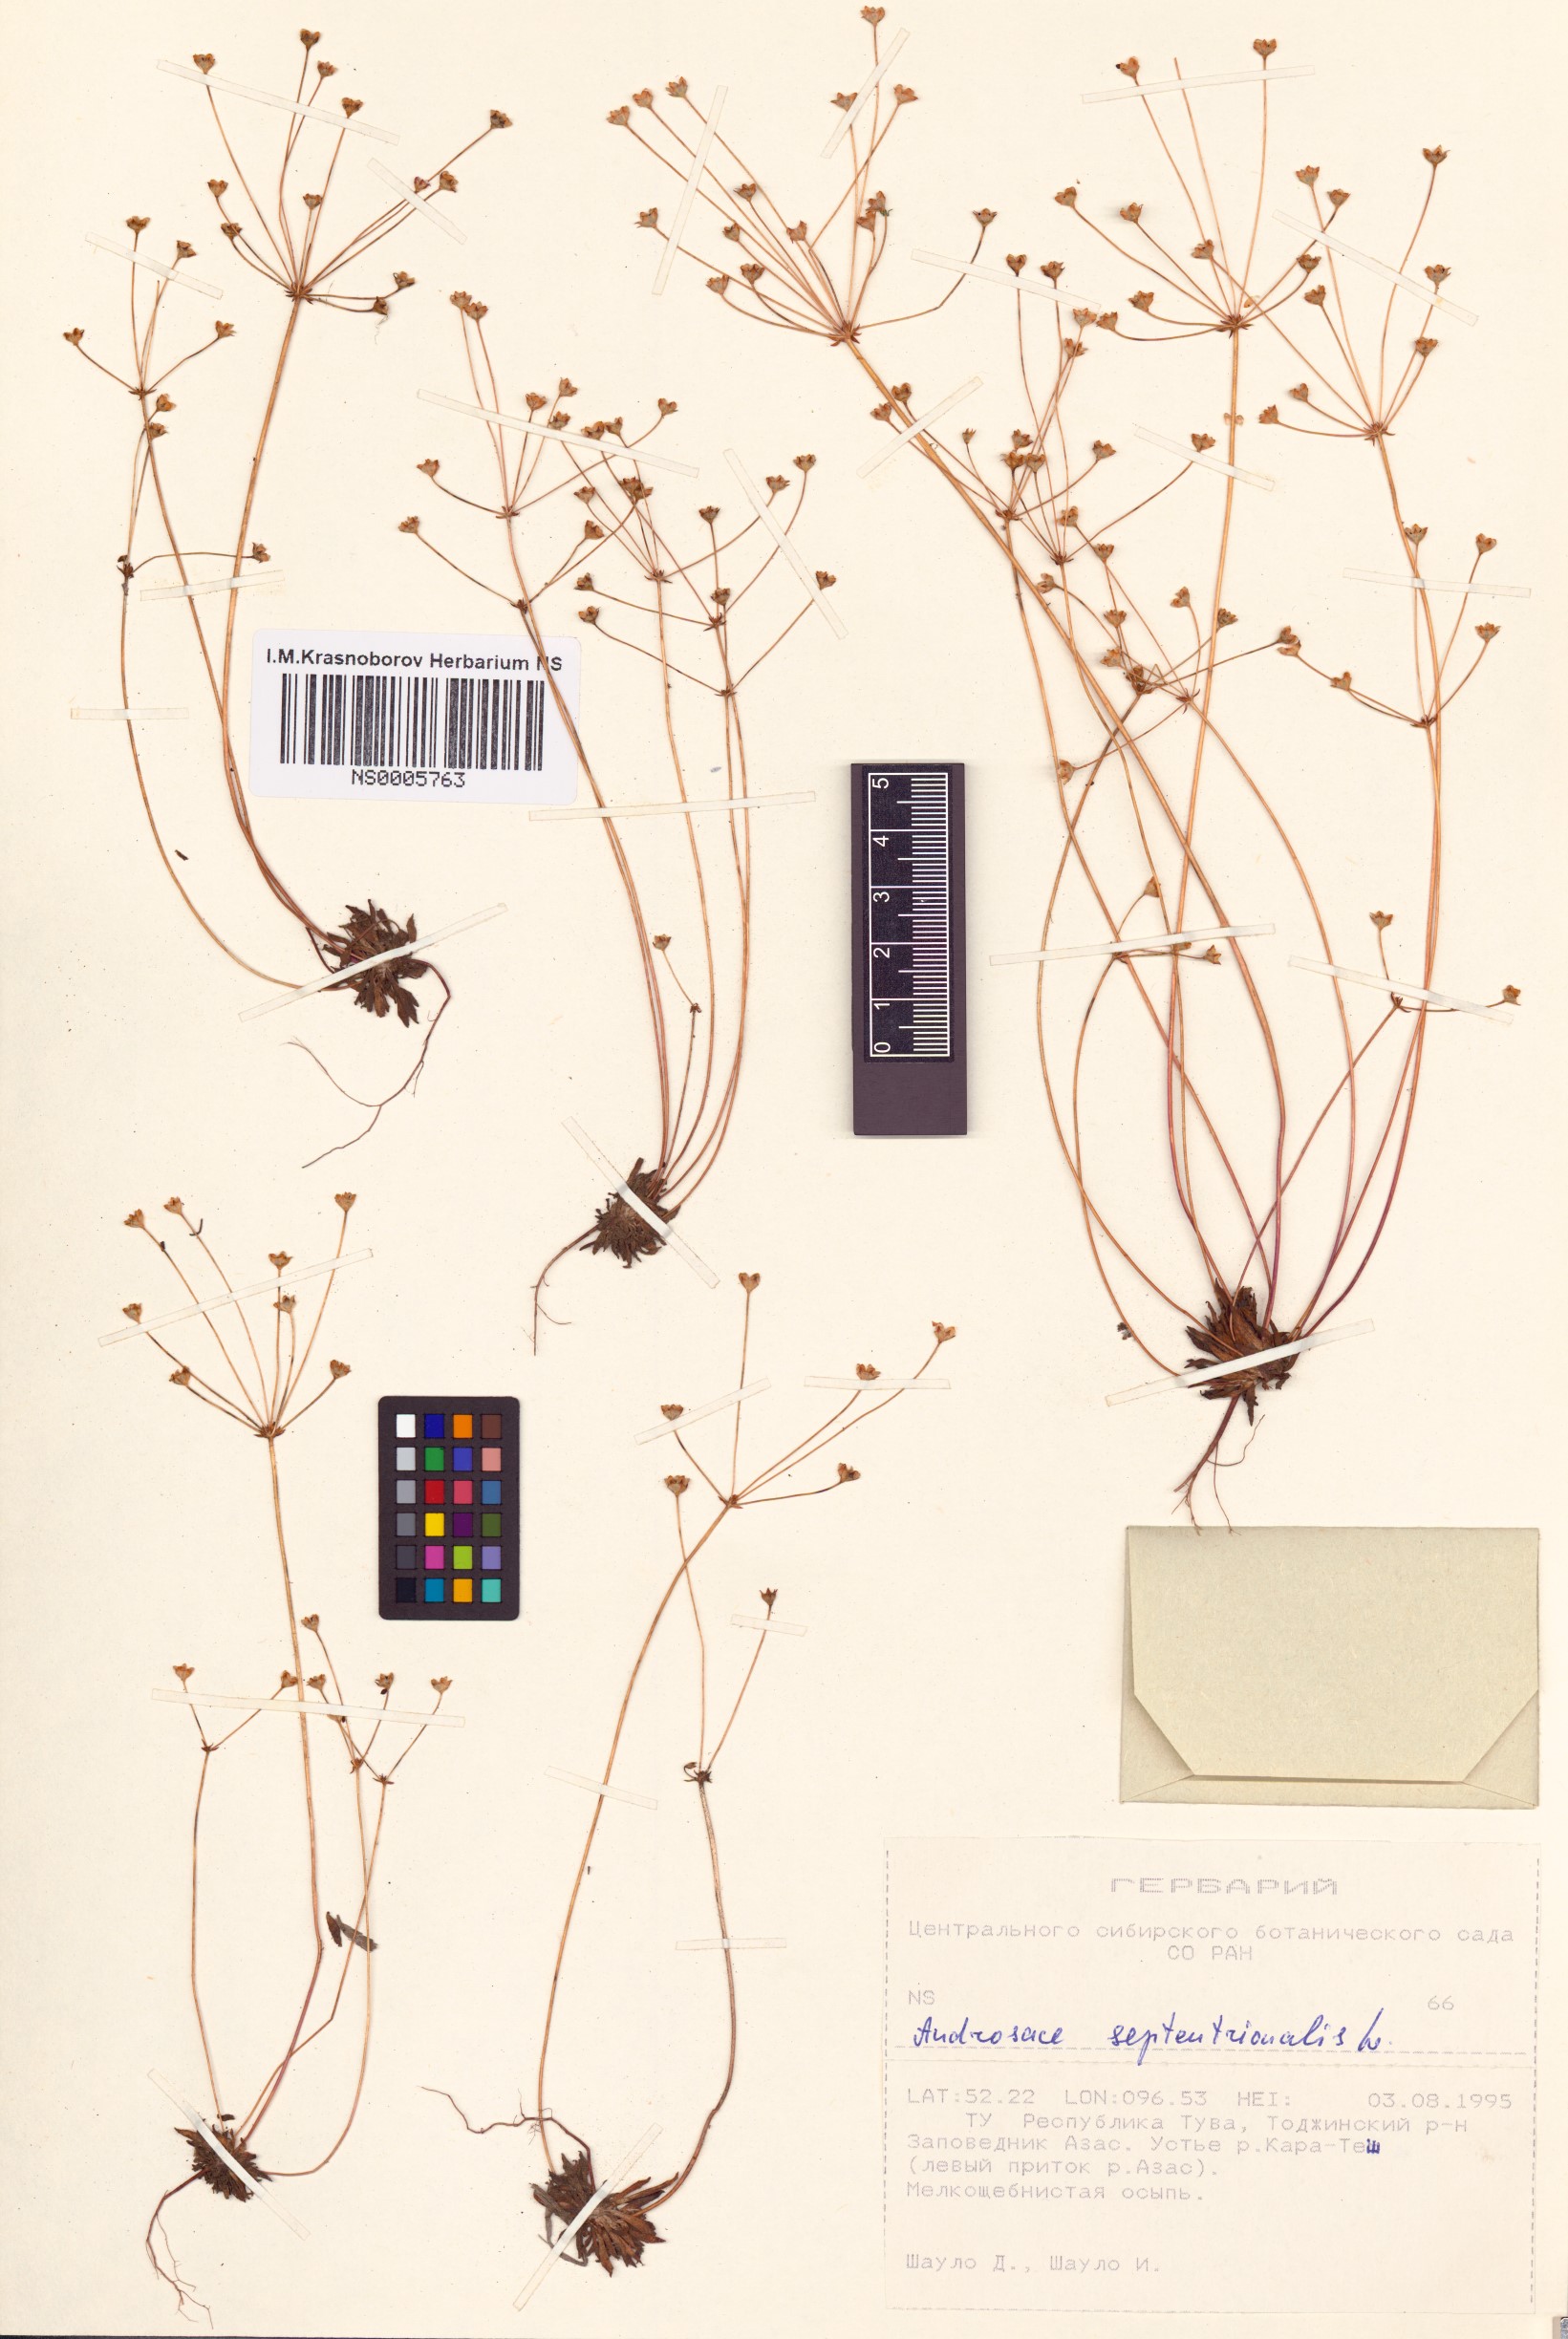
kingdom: Plantae
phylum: Tracheophyta
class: Magnoliopsida
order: Ericales
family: Primulaceae
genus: Androsace
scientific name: Androsace septentrionalis
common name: Hairy northern fairy-candelabra
